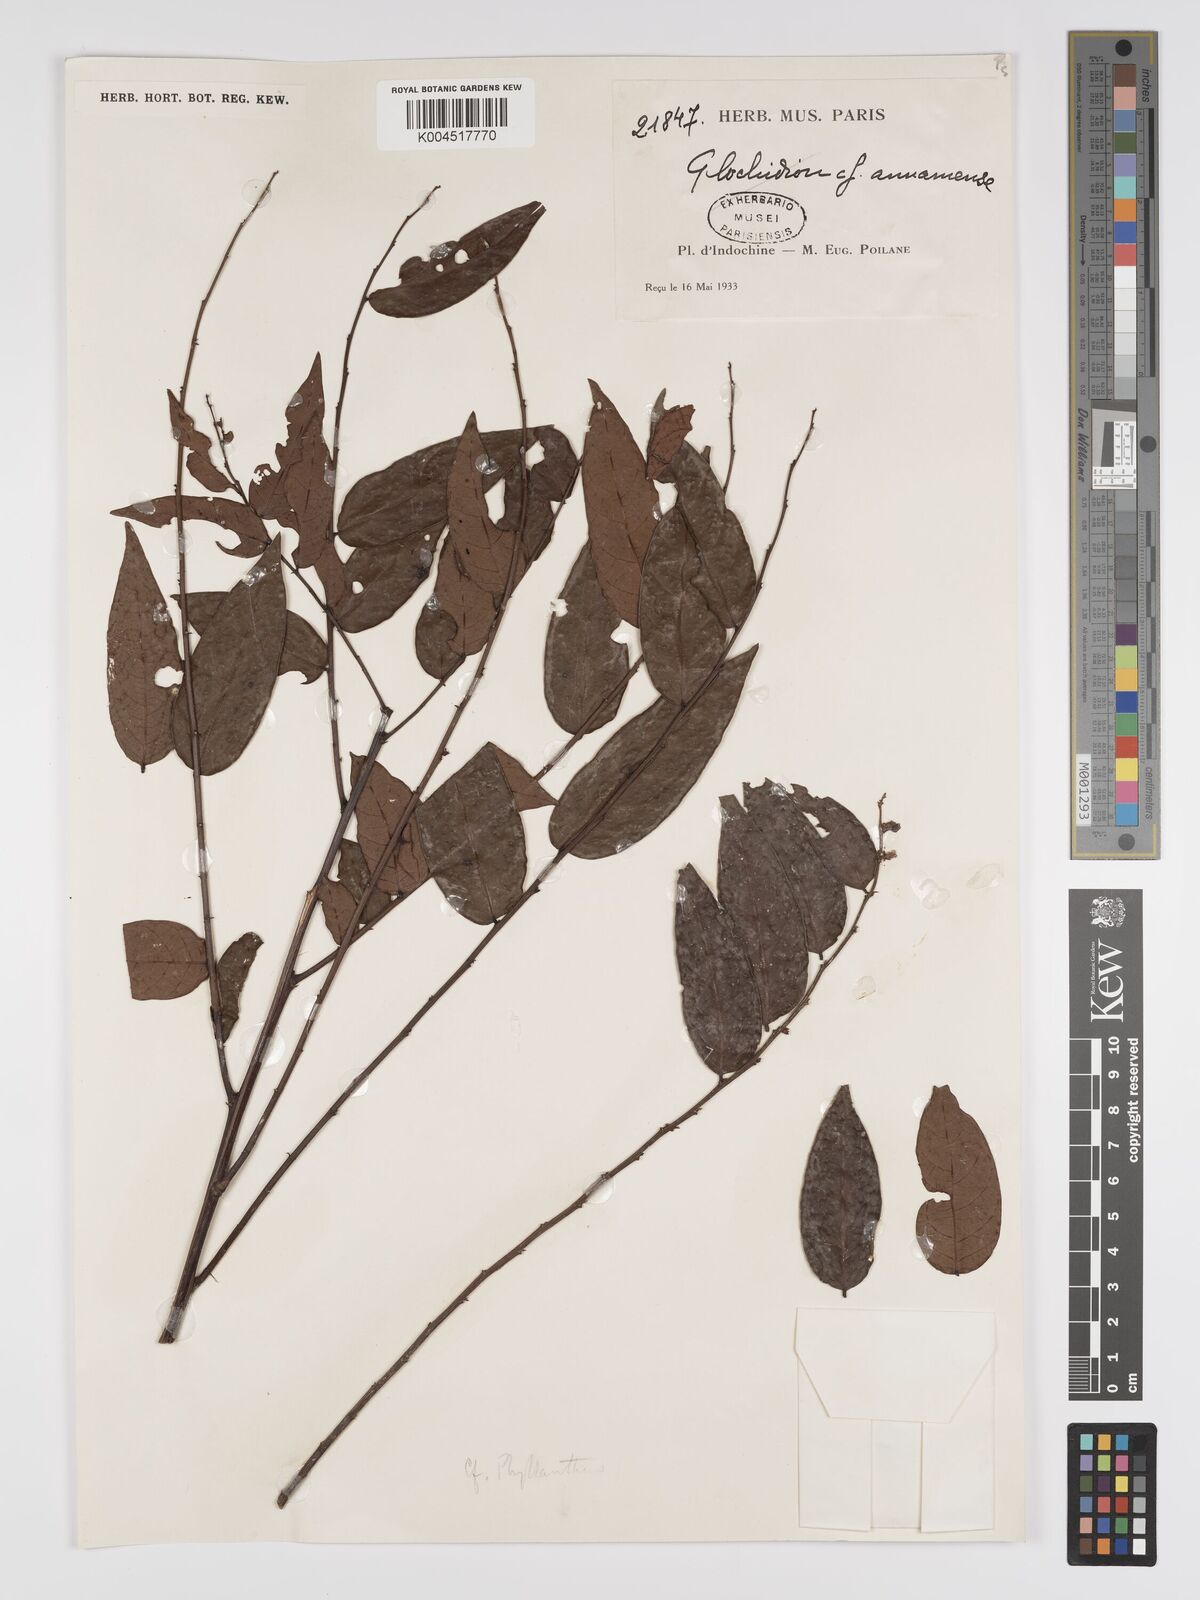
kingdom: Plantae
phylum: Tracheophyta
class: Magnoliopsida
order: Malpighiales
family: Phyllanthaceae
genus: Phyllanthus
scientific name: Phyllanthus pachyphyllus
